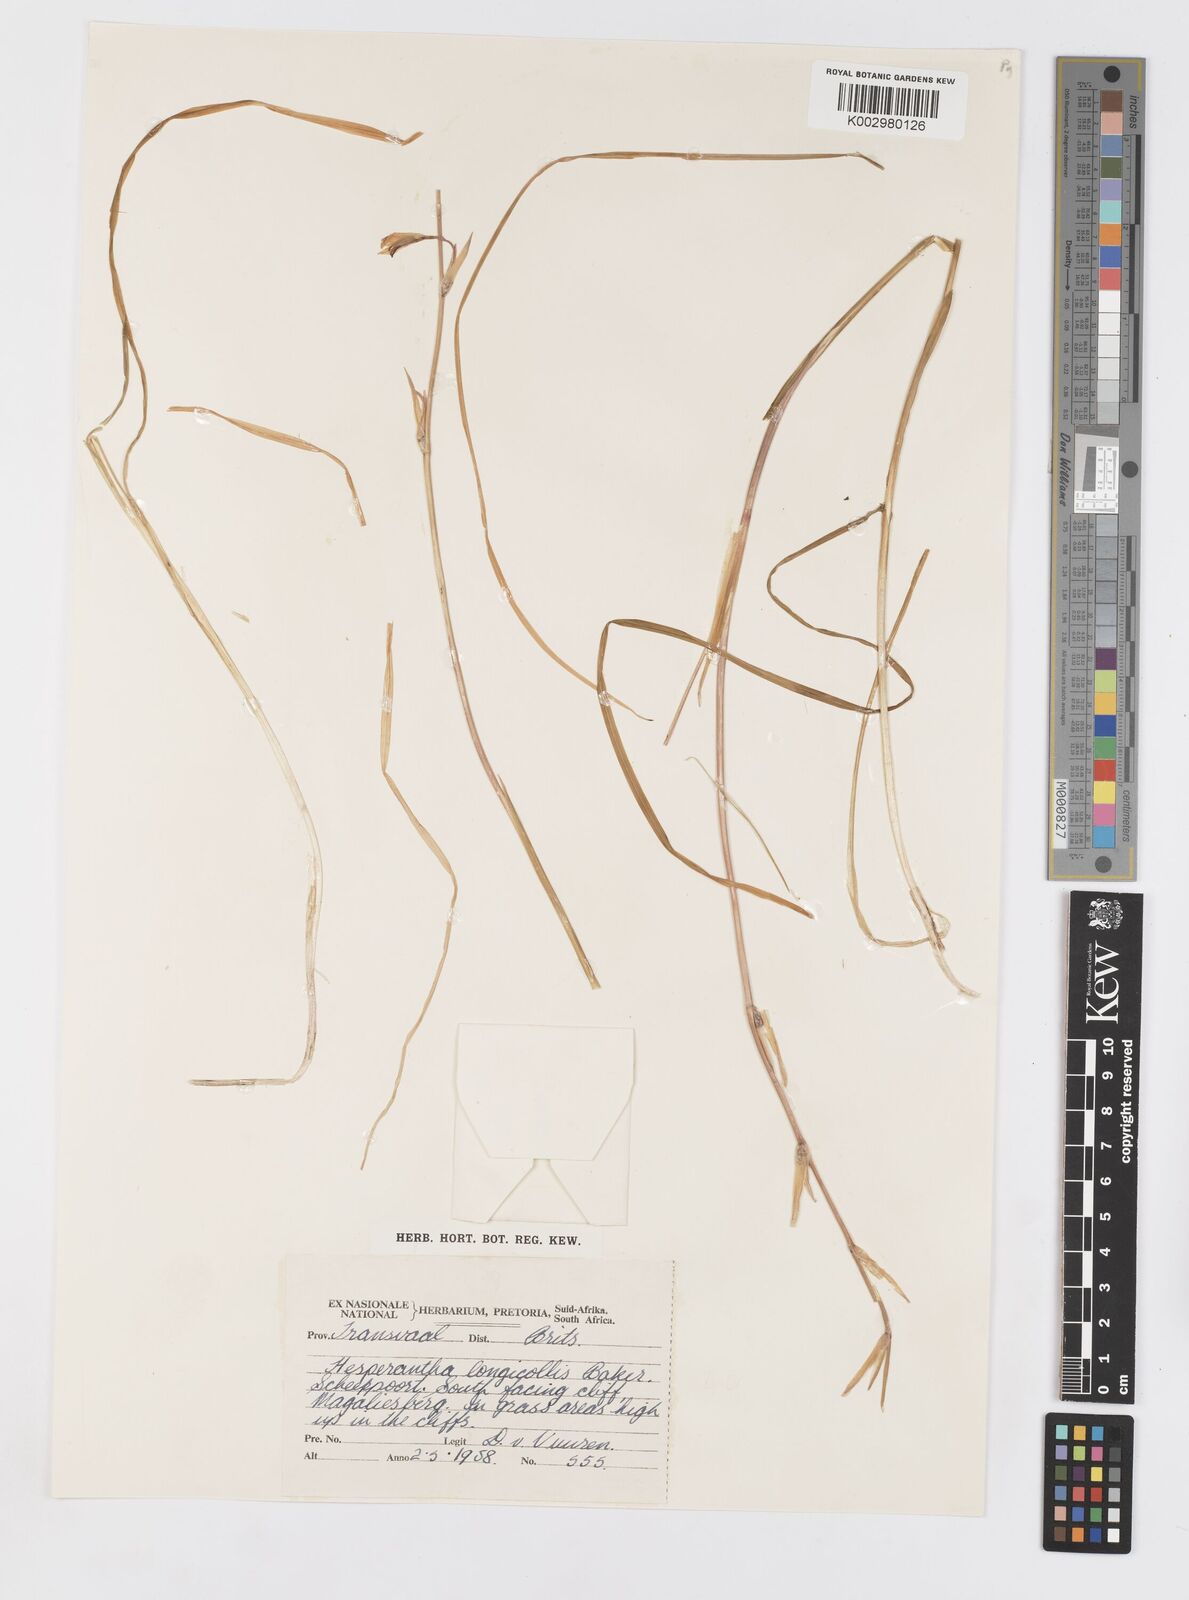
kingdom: Plantae
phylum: Tracheophyta
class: Liliopsida
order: Asparagales
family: Iridaceae
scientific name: Iridaceae
